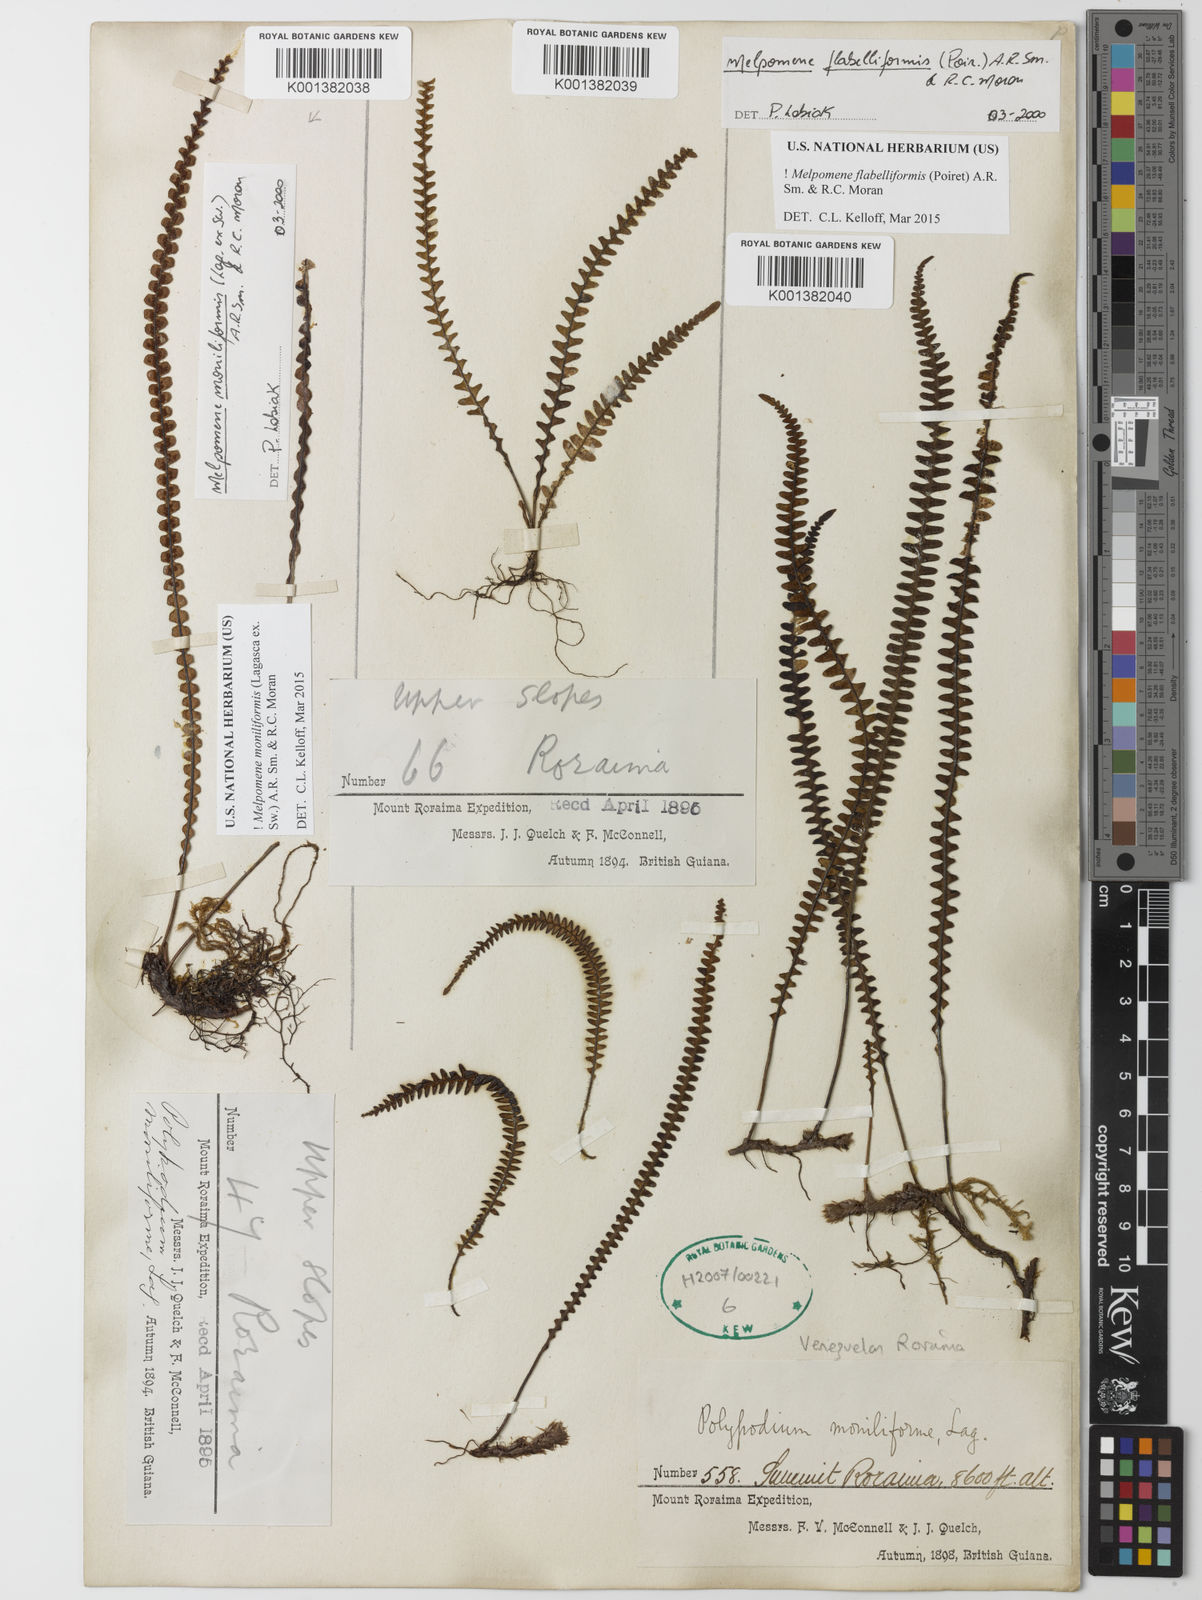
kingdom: Plantae
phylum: Tracheophyta
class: Polypodiopsida
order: Polypodiales
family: Polypodiaceae
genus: Melpomene
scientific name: Melpomene flabelliformis
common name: Fanleaf dwarf polypody
